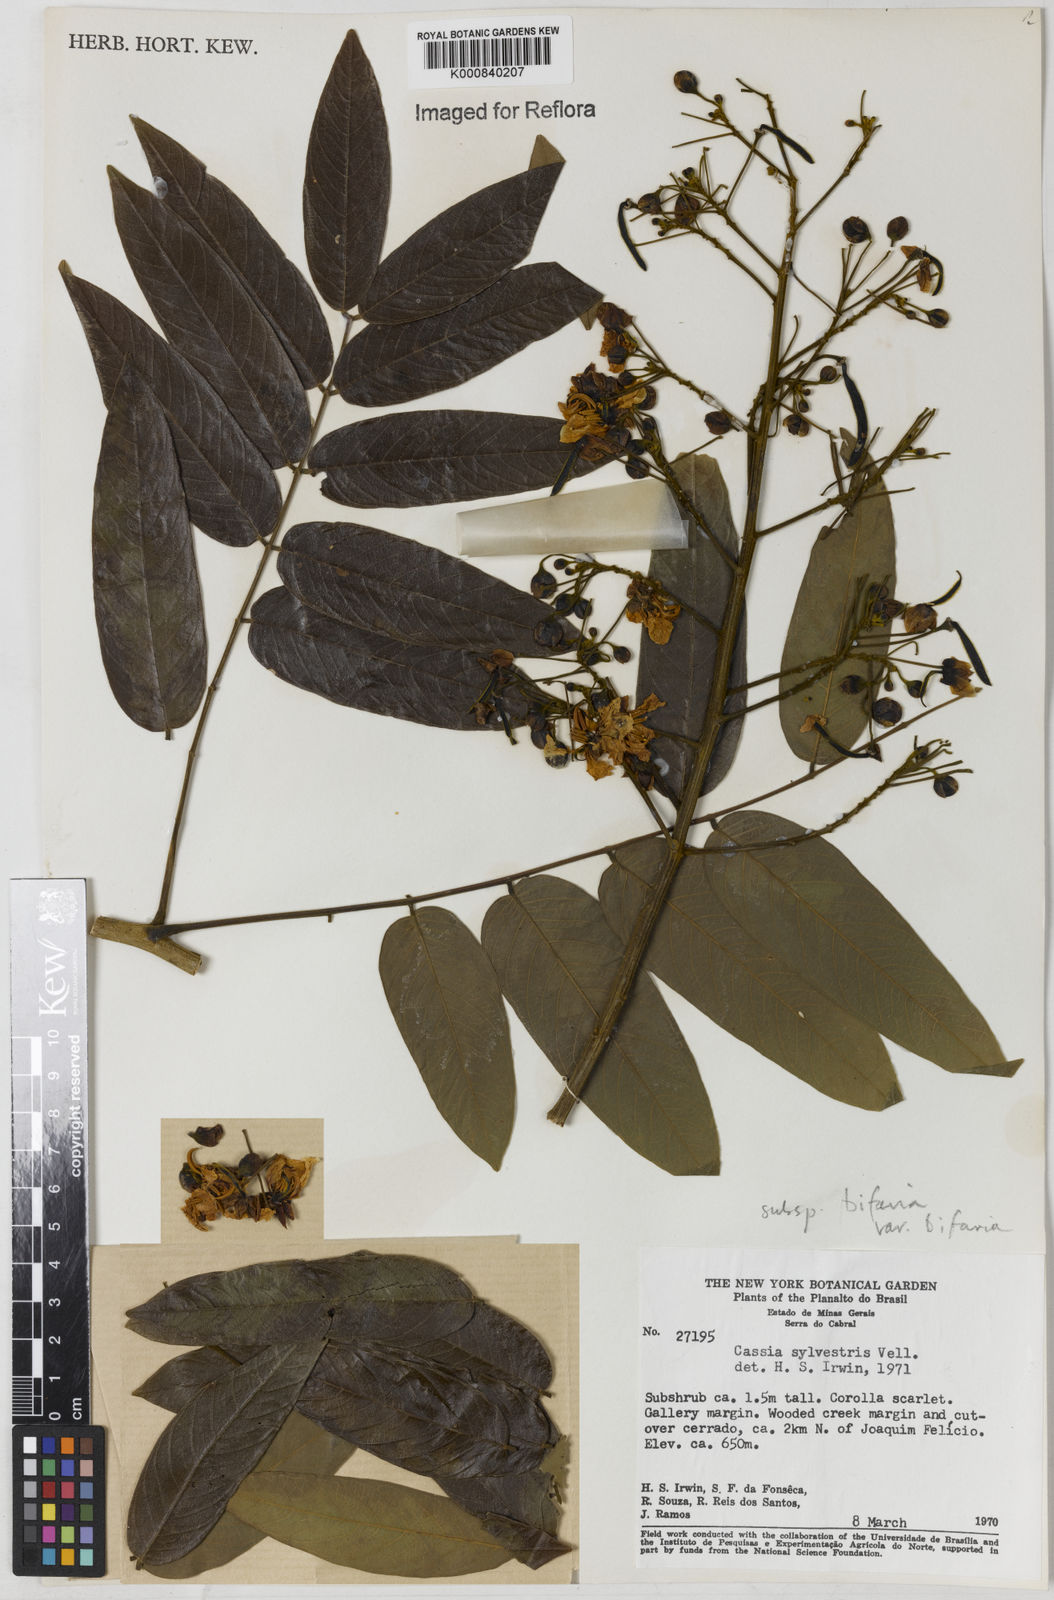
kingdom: Plantae
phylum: Tracheophyta
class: Magnoliopsida
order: Fabales
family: Fabaceae
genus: Senna
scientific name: Senna silvestris
